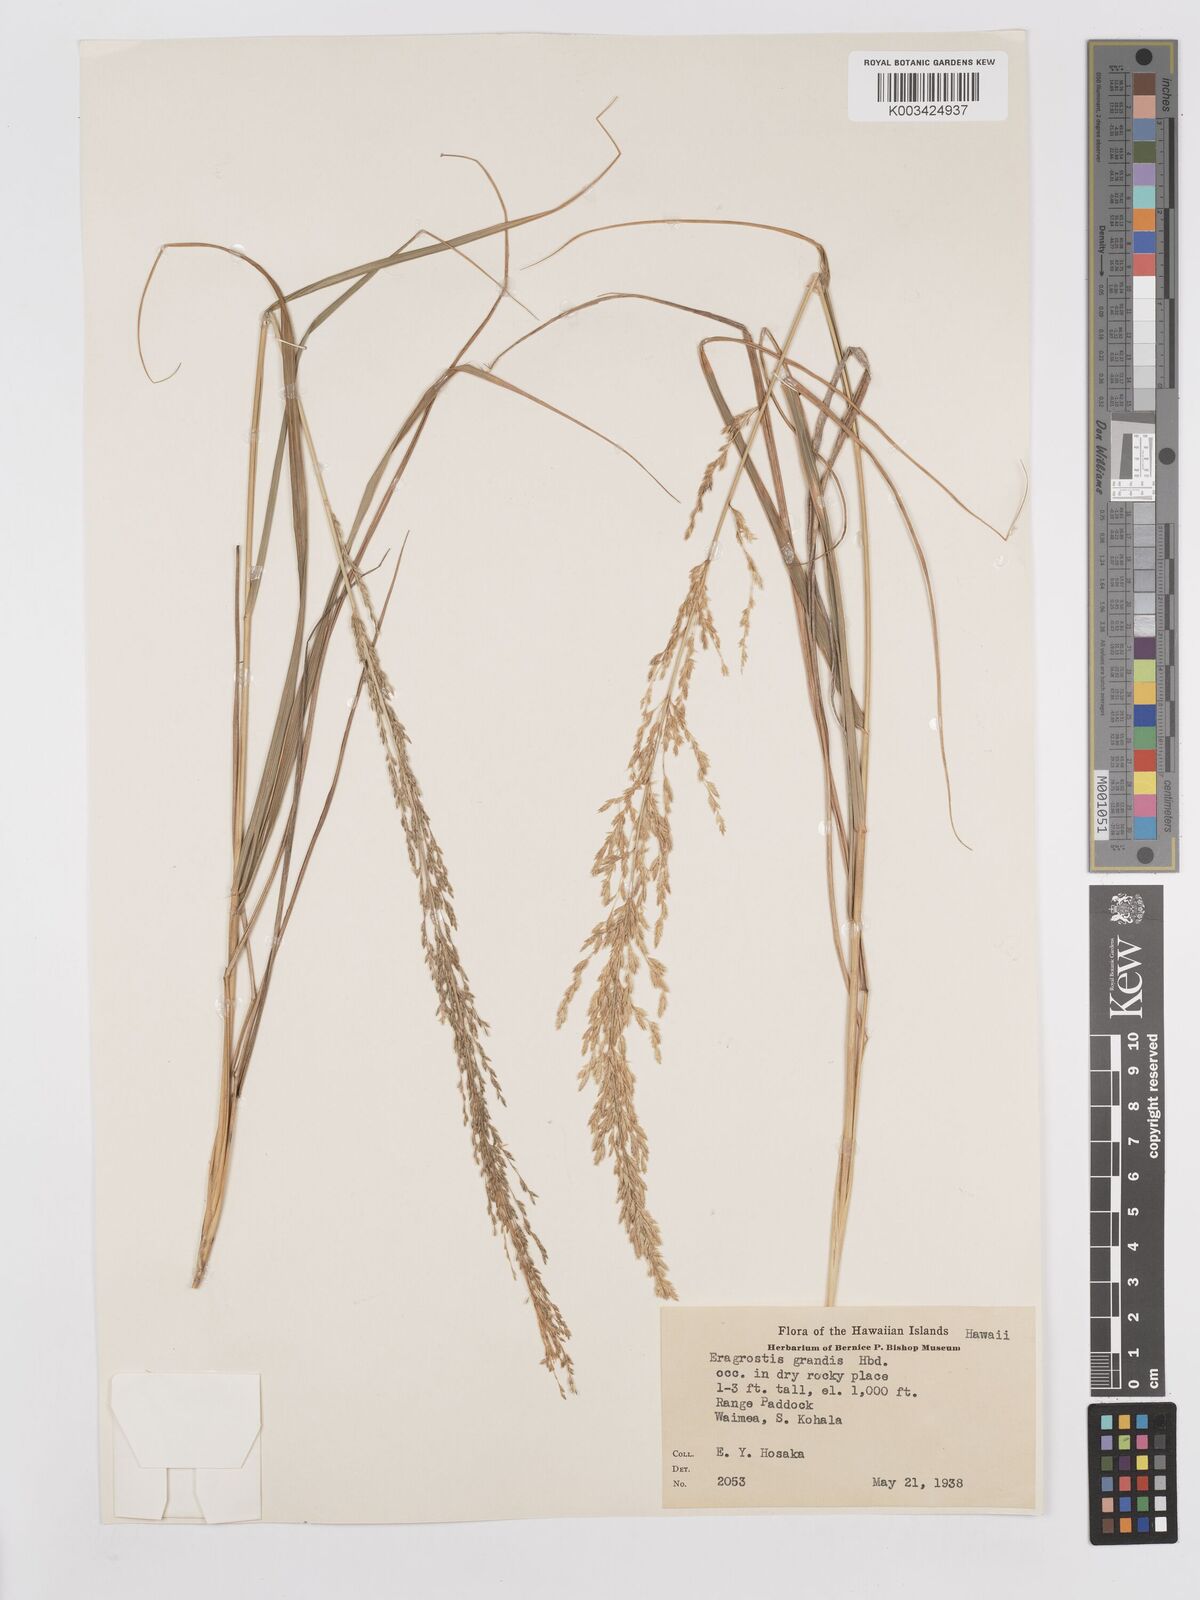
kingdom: Plantae
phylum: Tracheophyta
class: Liliopsida
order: Poales
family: Poaceae
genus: Eragrostis
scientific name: Eragrostis grandis
